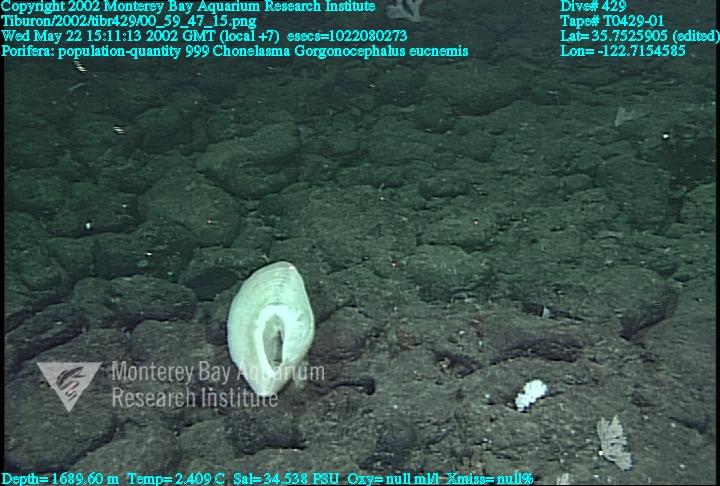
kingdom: Animalia
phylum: Porifera
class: Hexactinellida
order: Sceptrulophora
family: Euretidae
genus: Chonelasma
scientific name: Chonelasma
